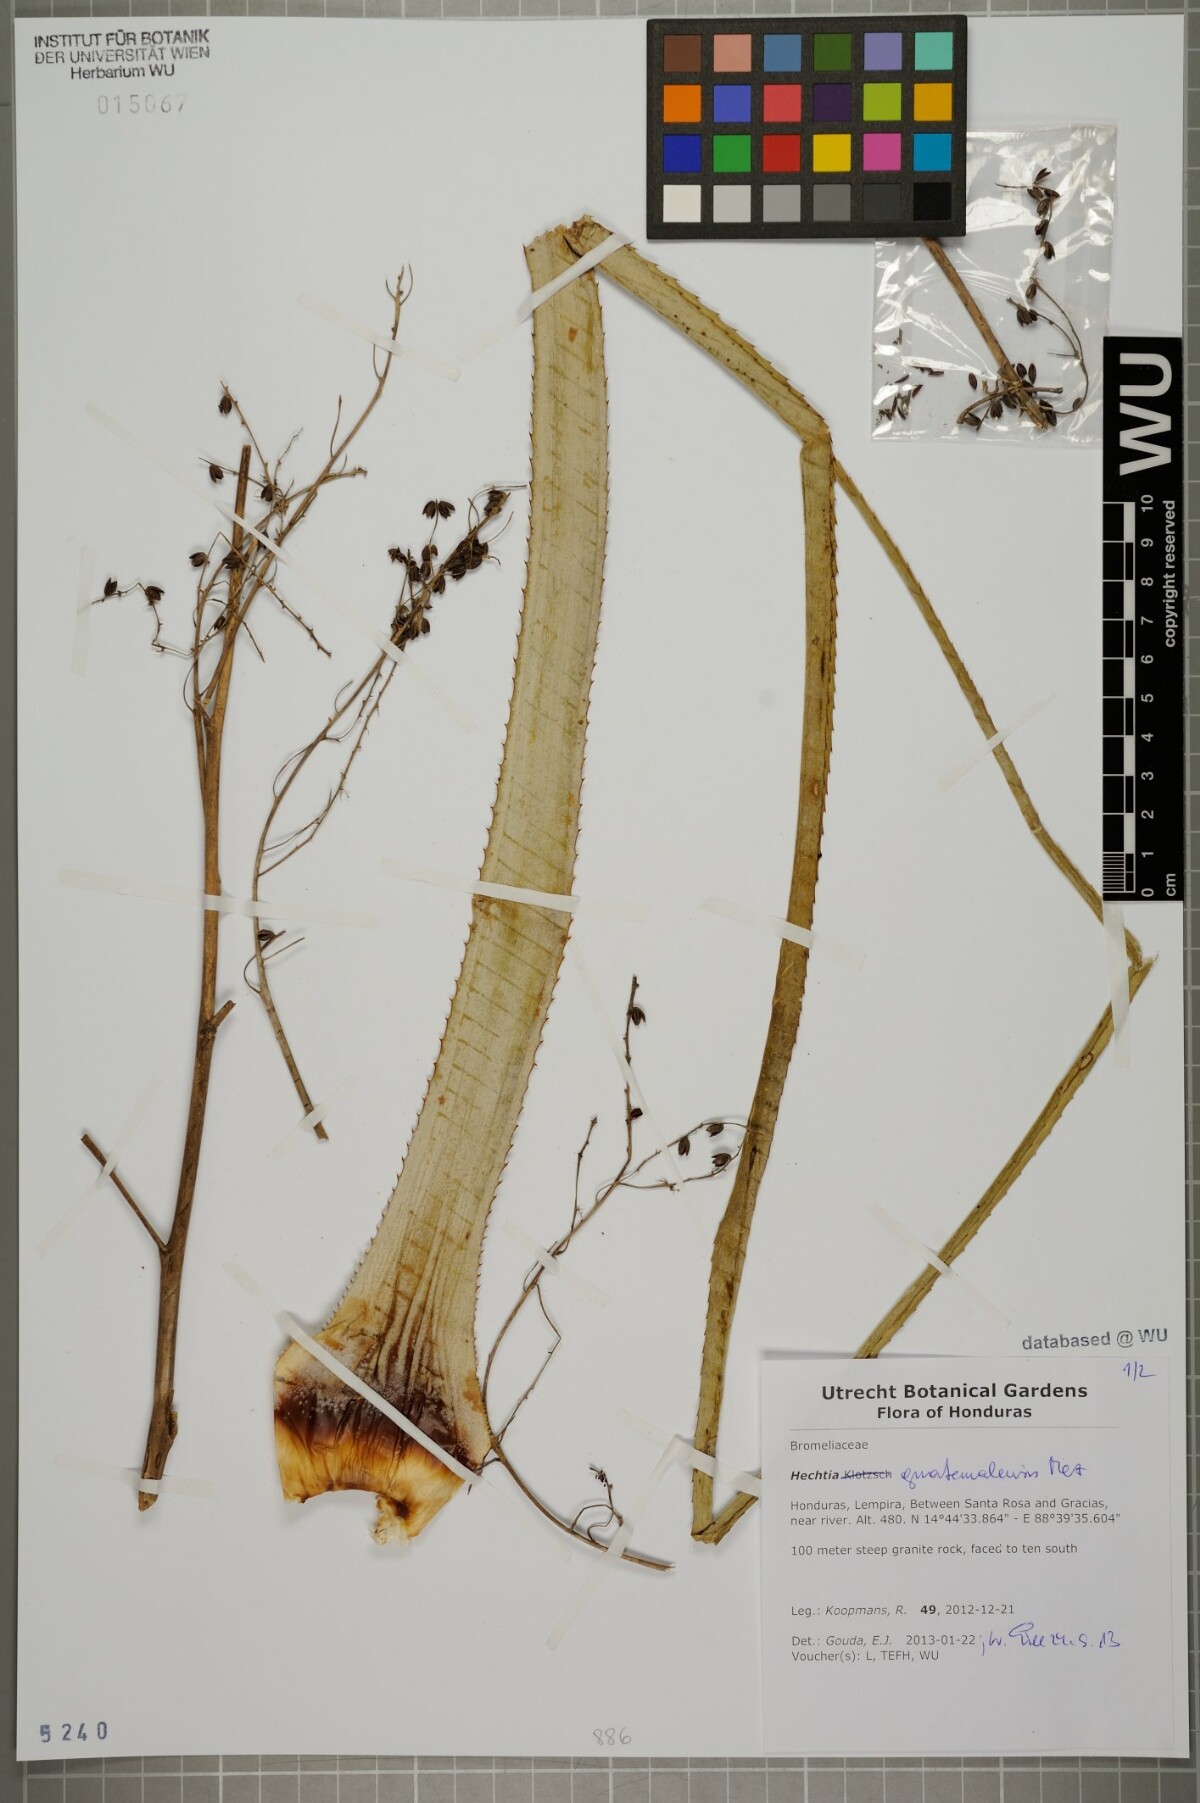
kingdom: Plantae
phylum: Tracheophyta
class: Liliopsida
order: Poales
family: Bromeliaceae
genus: Hechtia
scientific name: Hechtia guatemalensis
